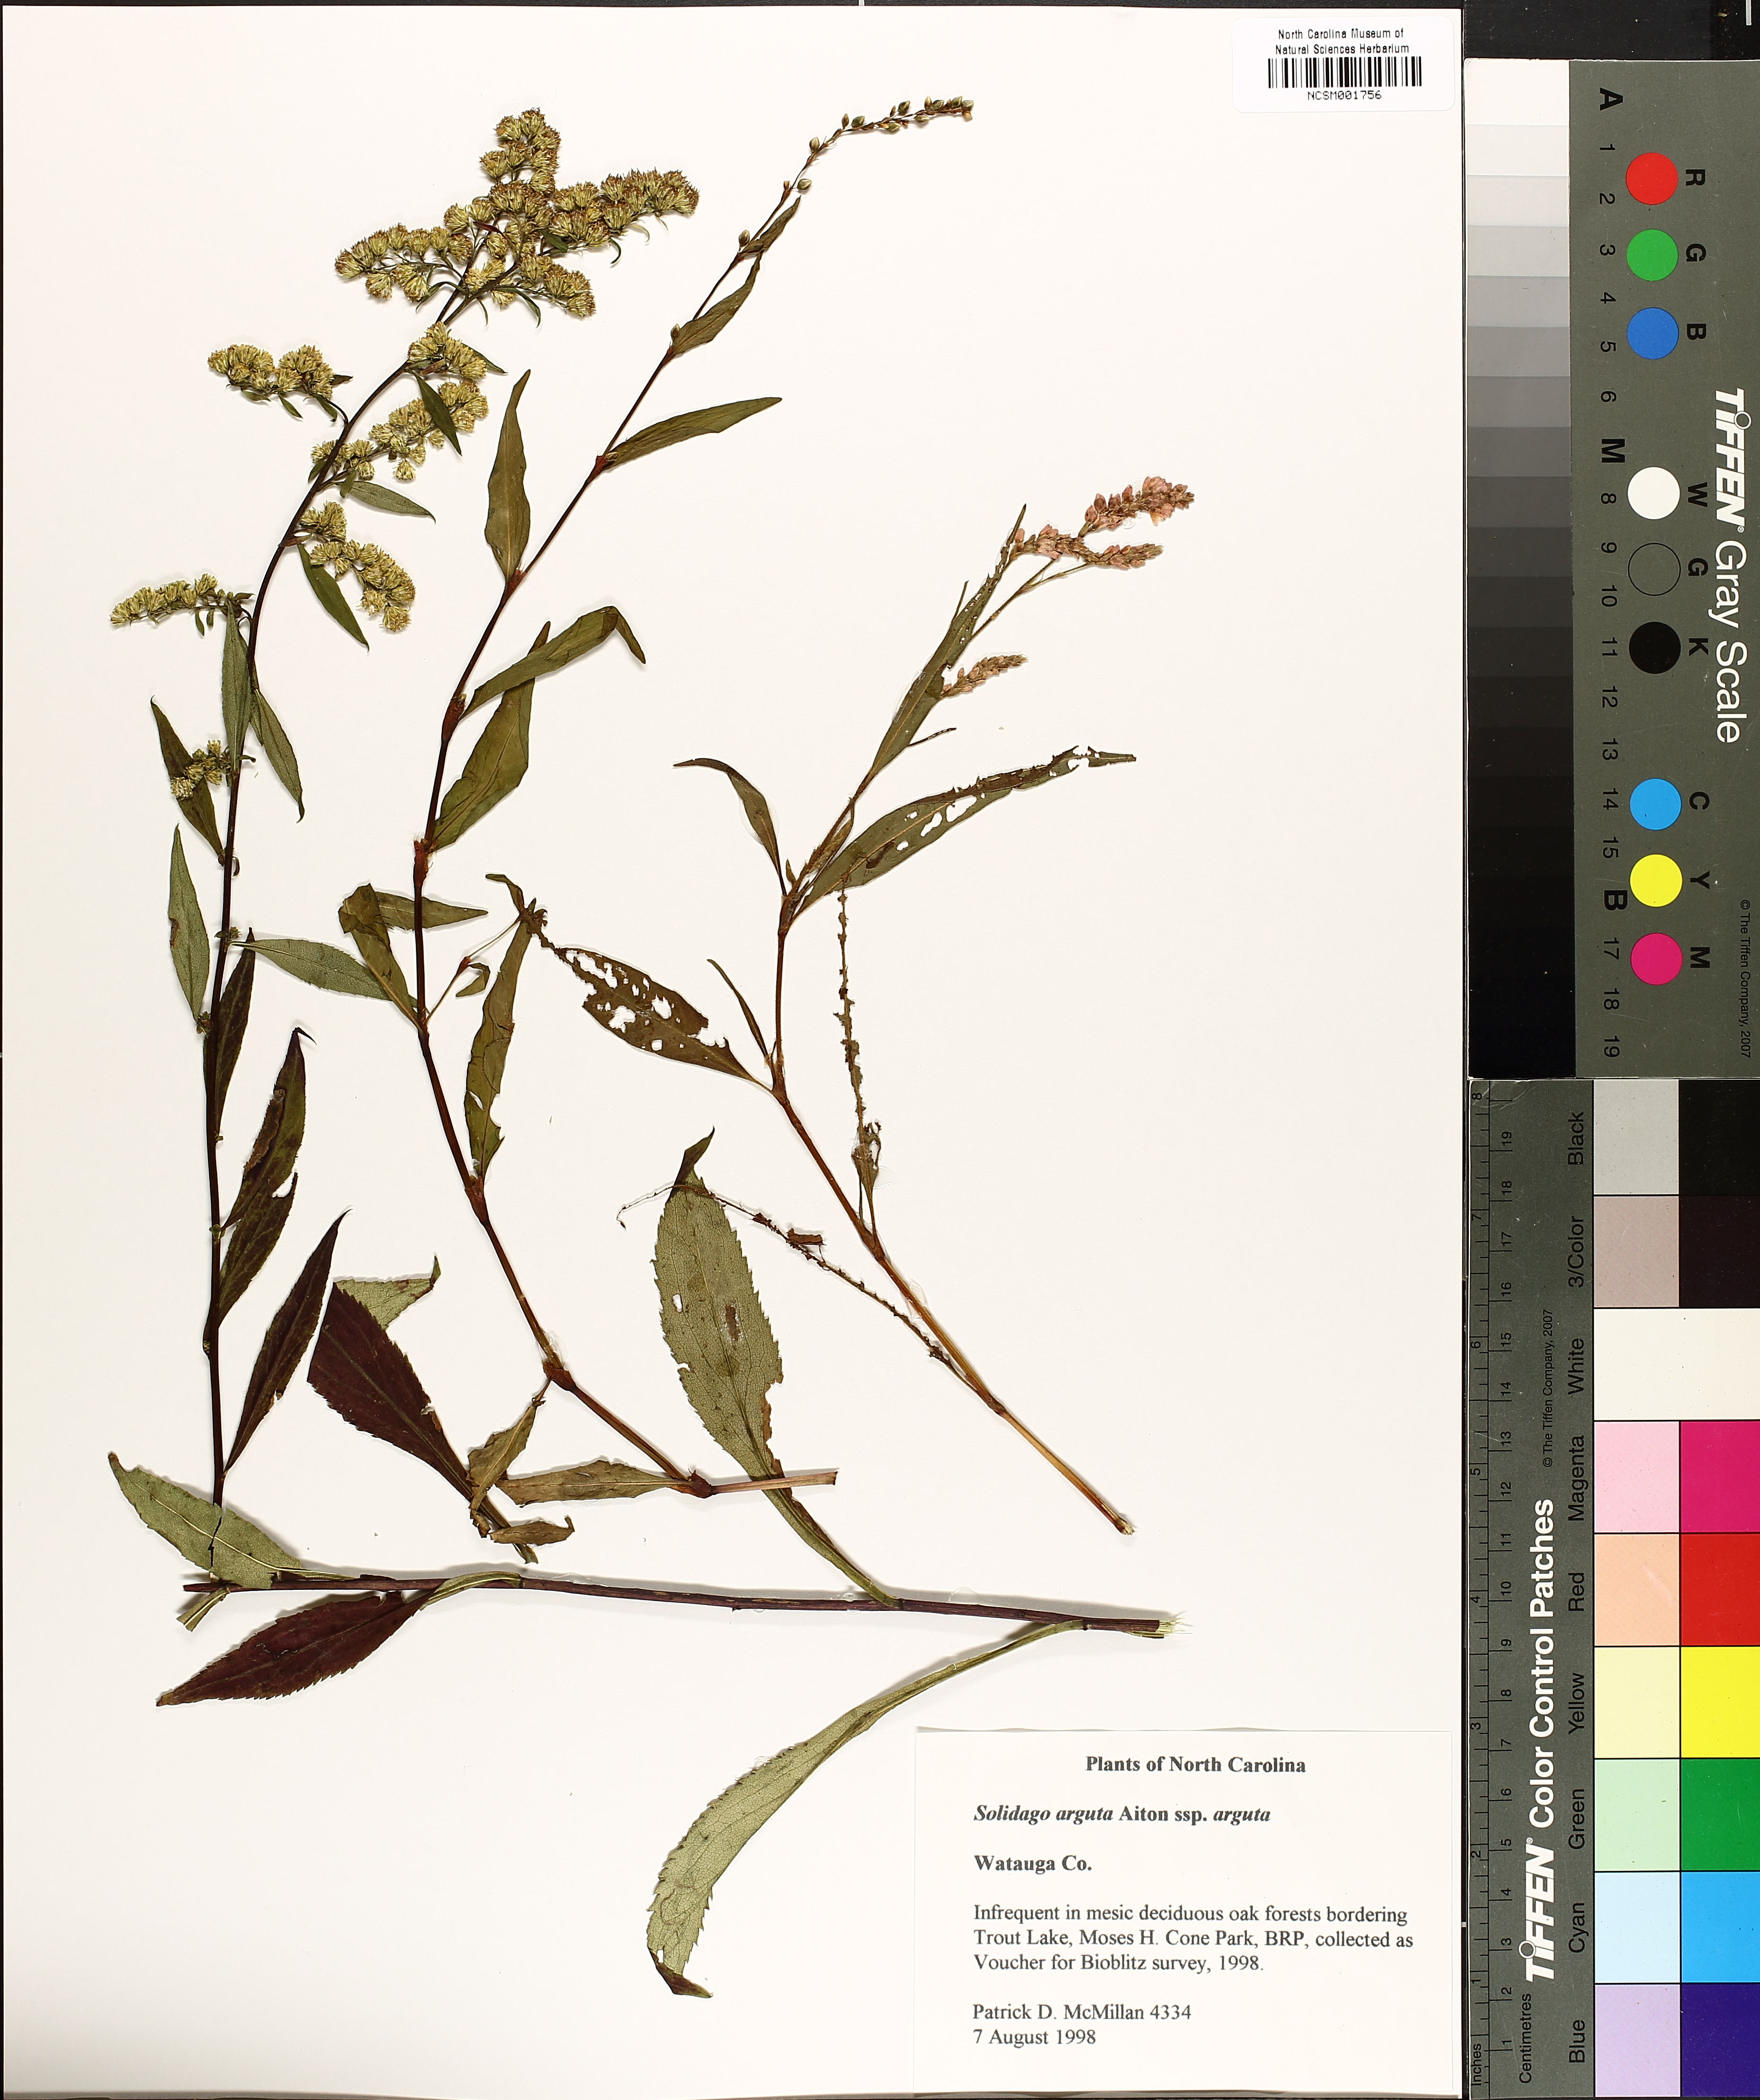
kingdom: Plantae
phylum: Tracheophyta
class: Magnoliopsida
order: Asterales
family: Asteraceae
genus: Solidago
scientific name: Solidago arguta
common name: Atlantic goldenrod
